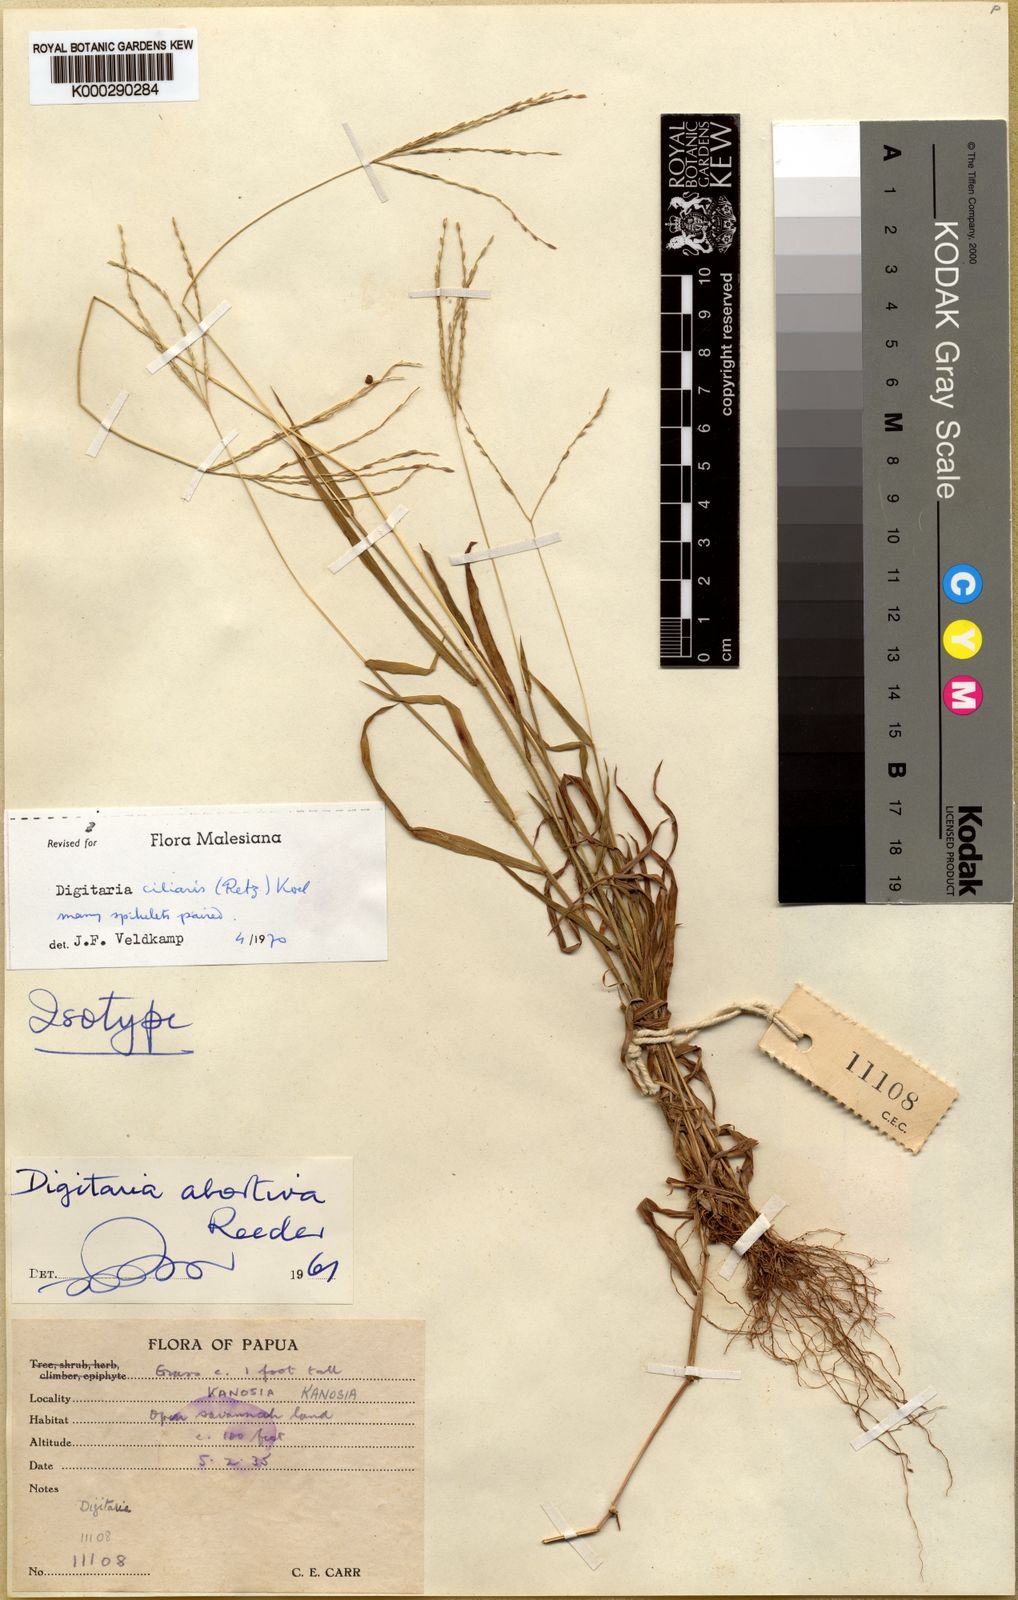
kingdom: Plantae
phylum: Tracheophyta
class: Liliopsida
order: Poales
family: Poaceae
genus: Digitaria
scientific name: Digitaria ciliaris
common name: Tropical finger-grass
